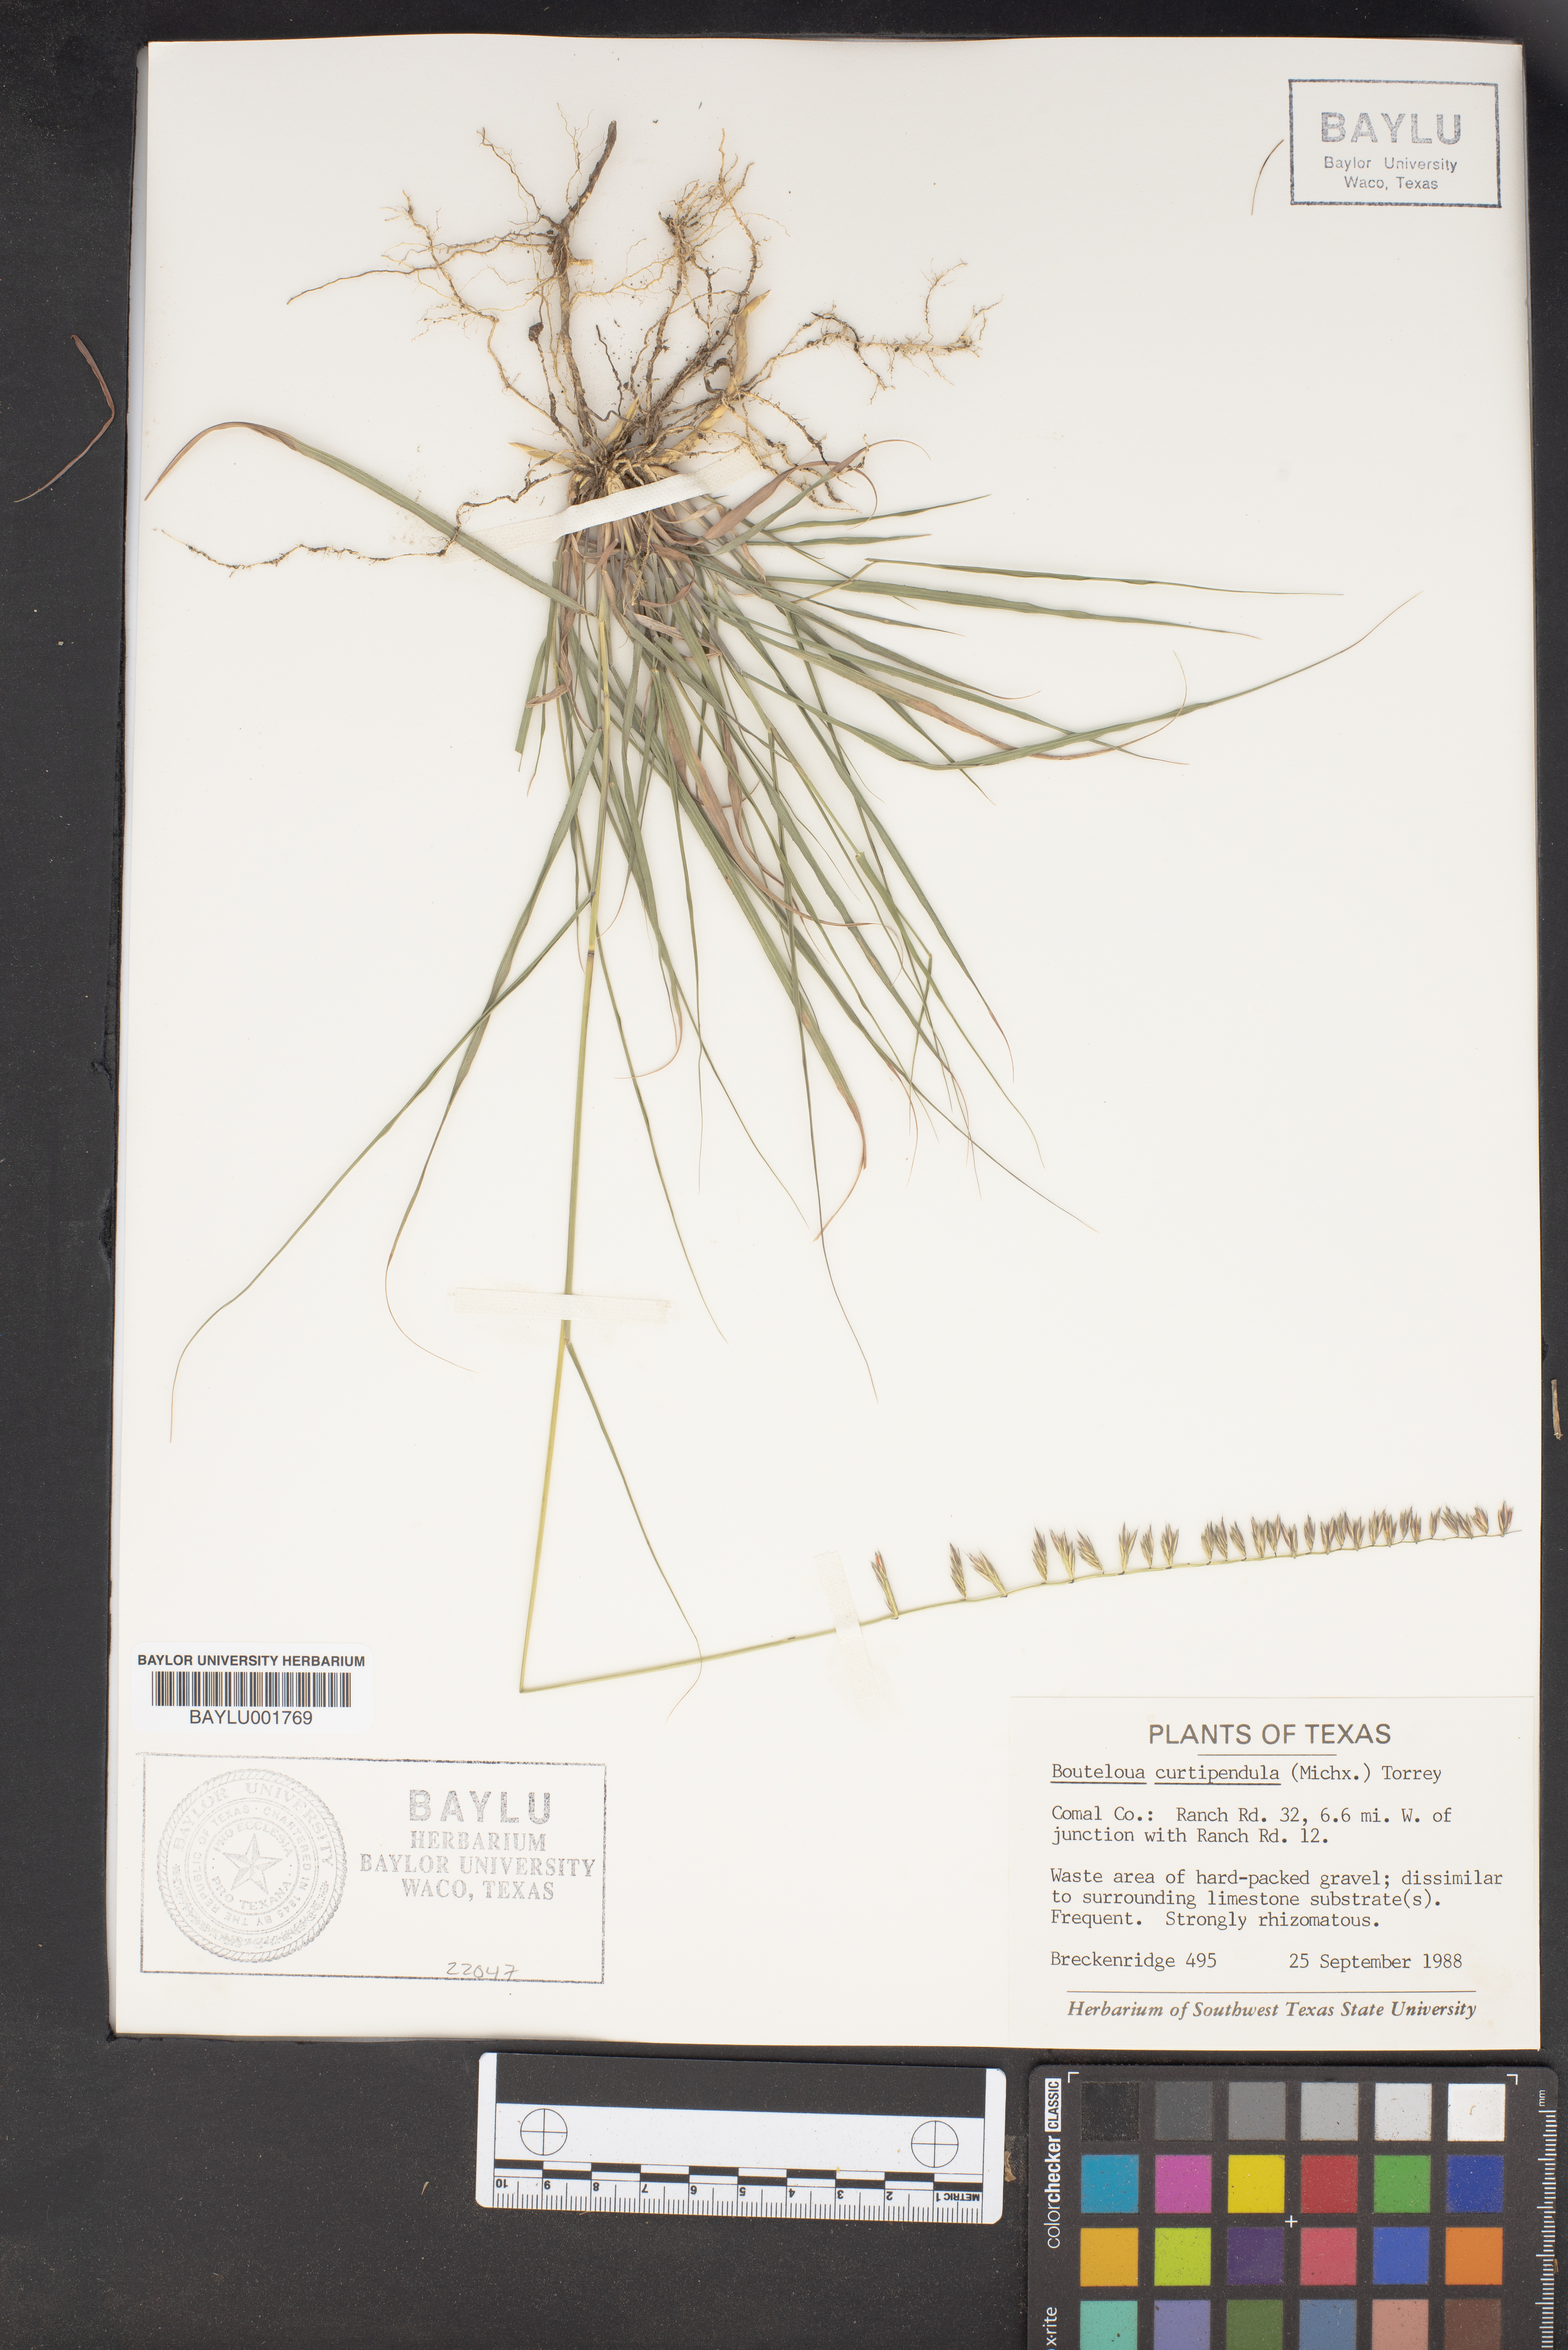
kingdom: Plantae
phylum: Tracheophyta
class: Liliopsida
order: Poales
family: Poaceae
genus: Bouteloua
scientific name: Bouteloua curtipendula
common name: Side-oats grama
